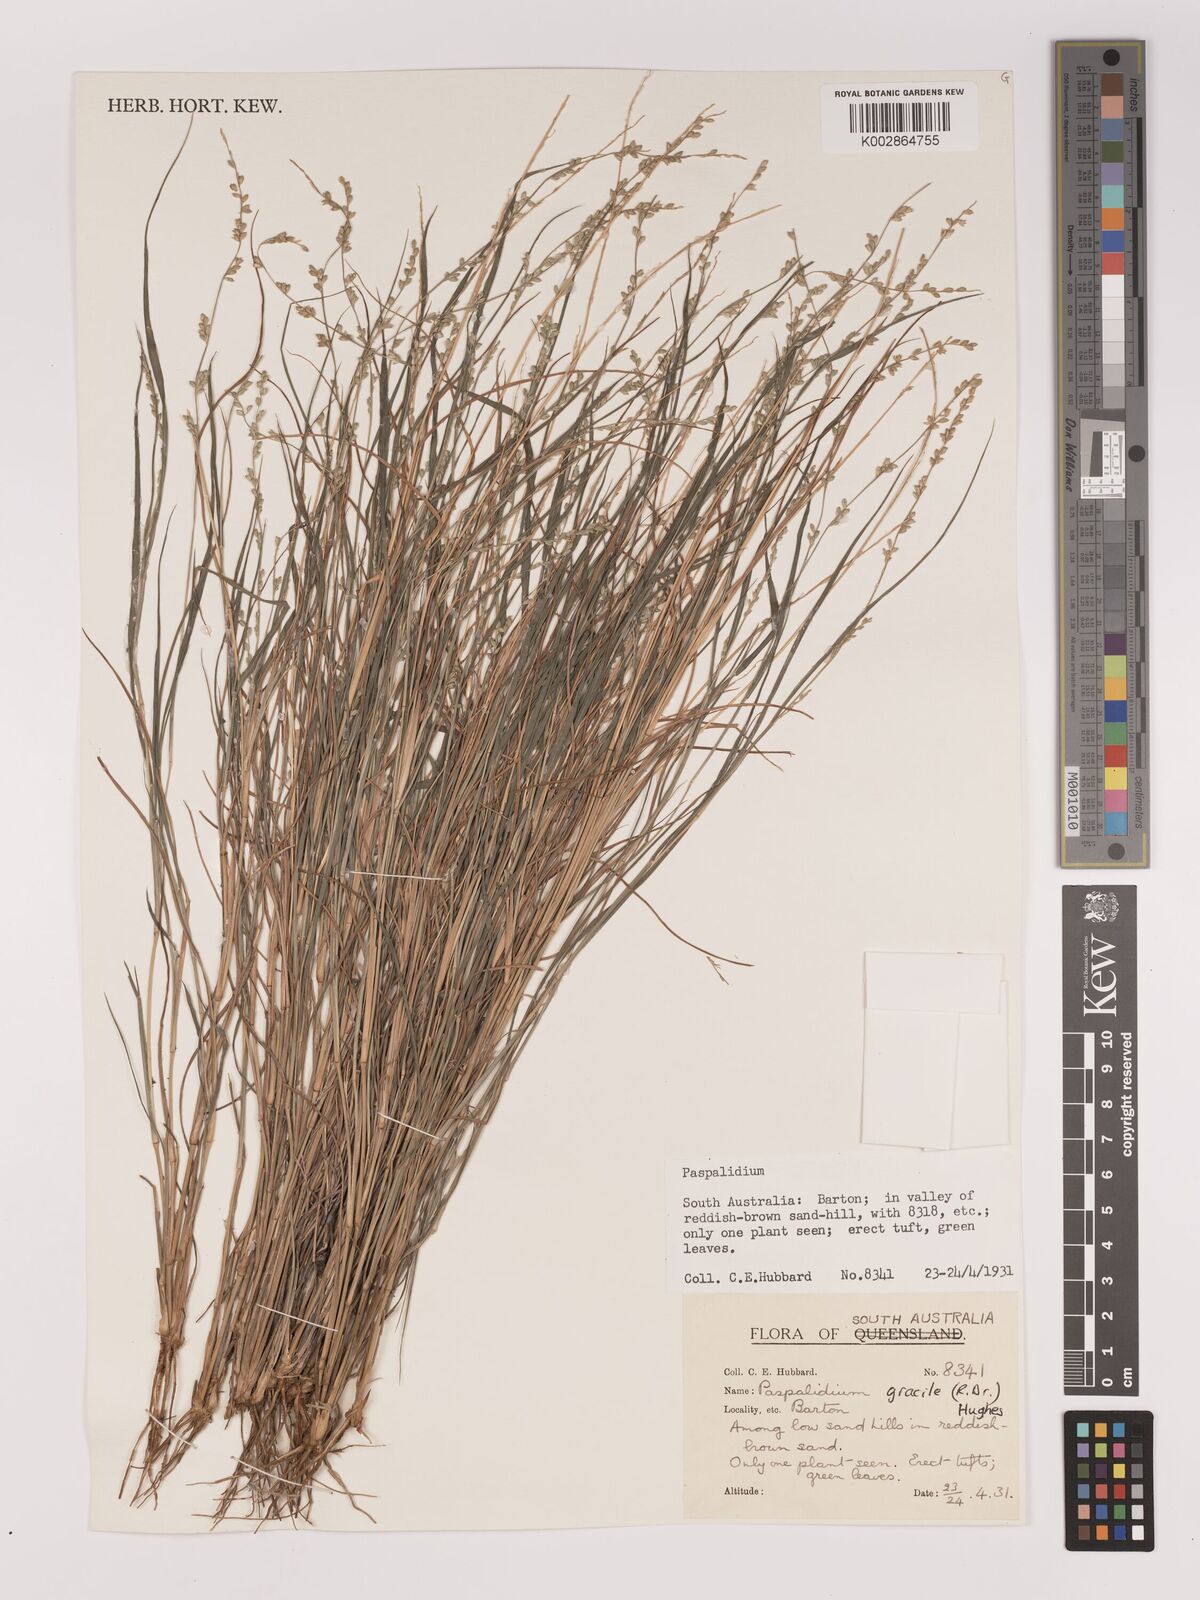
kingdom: Plantae
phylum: Tracheophyta
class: Liliopsida
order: Poales
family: Poaceae
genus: Setaria
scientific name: Setaria brownii
